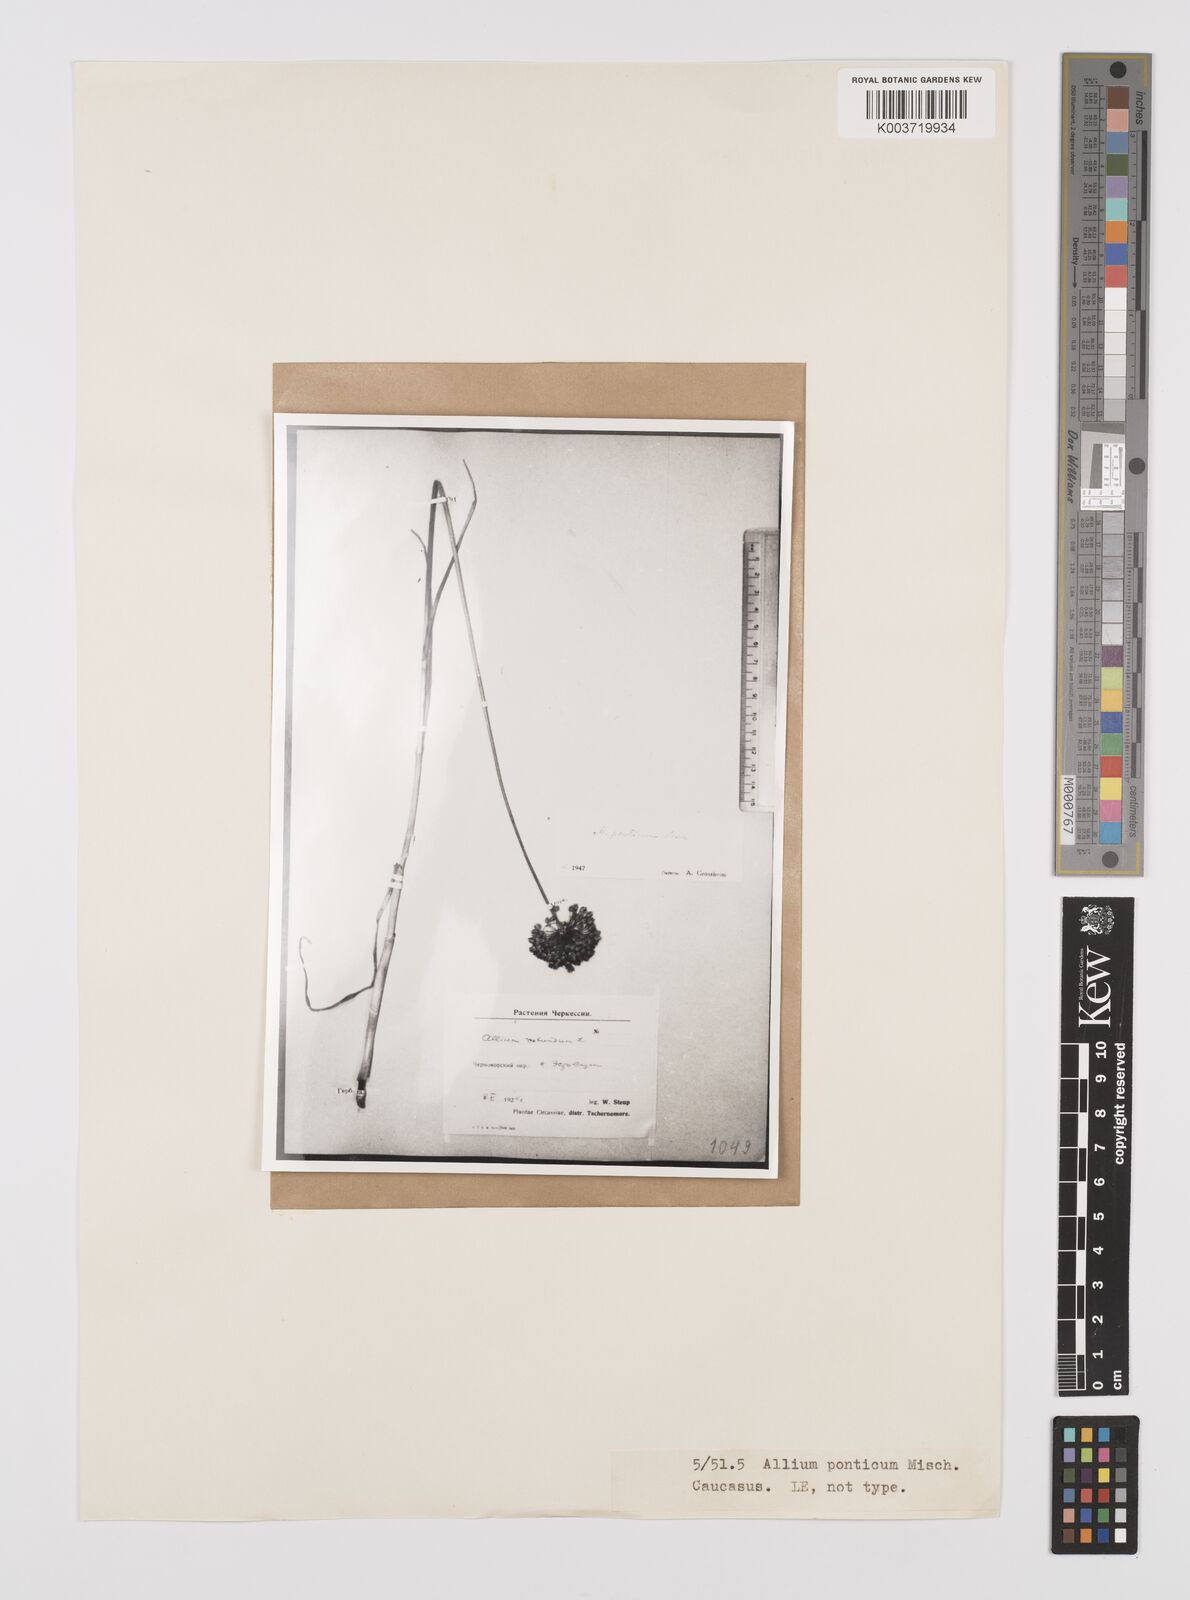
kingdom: Plantae
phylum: Tracheophyta
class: Liliopsida
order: Asparagales
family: Amaryllidaceae
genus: Allium
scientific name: Allium ponticum
